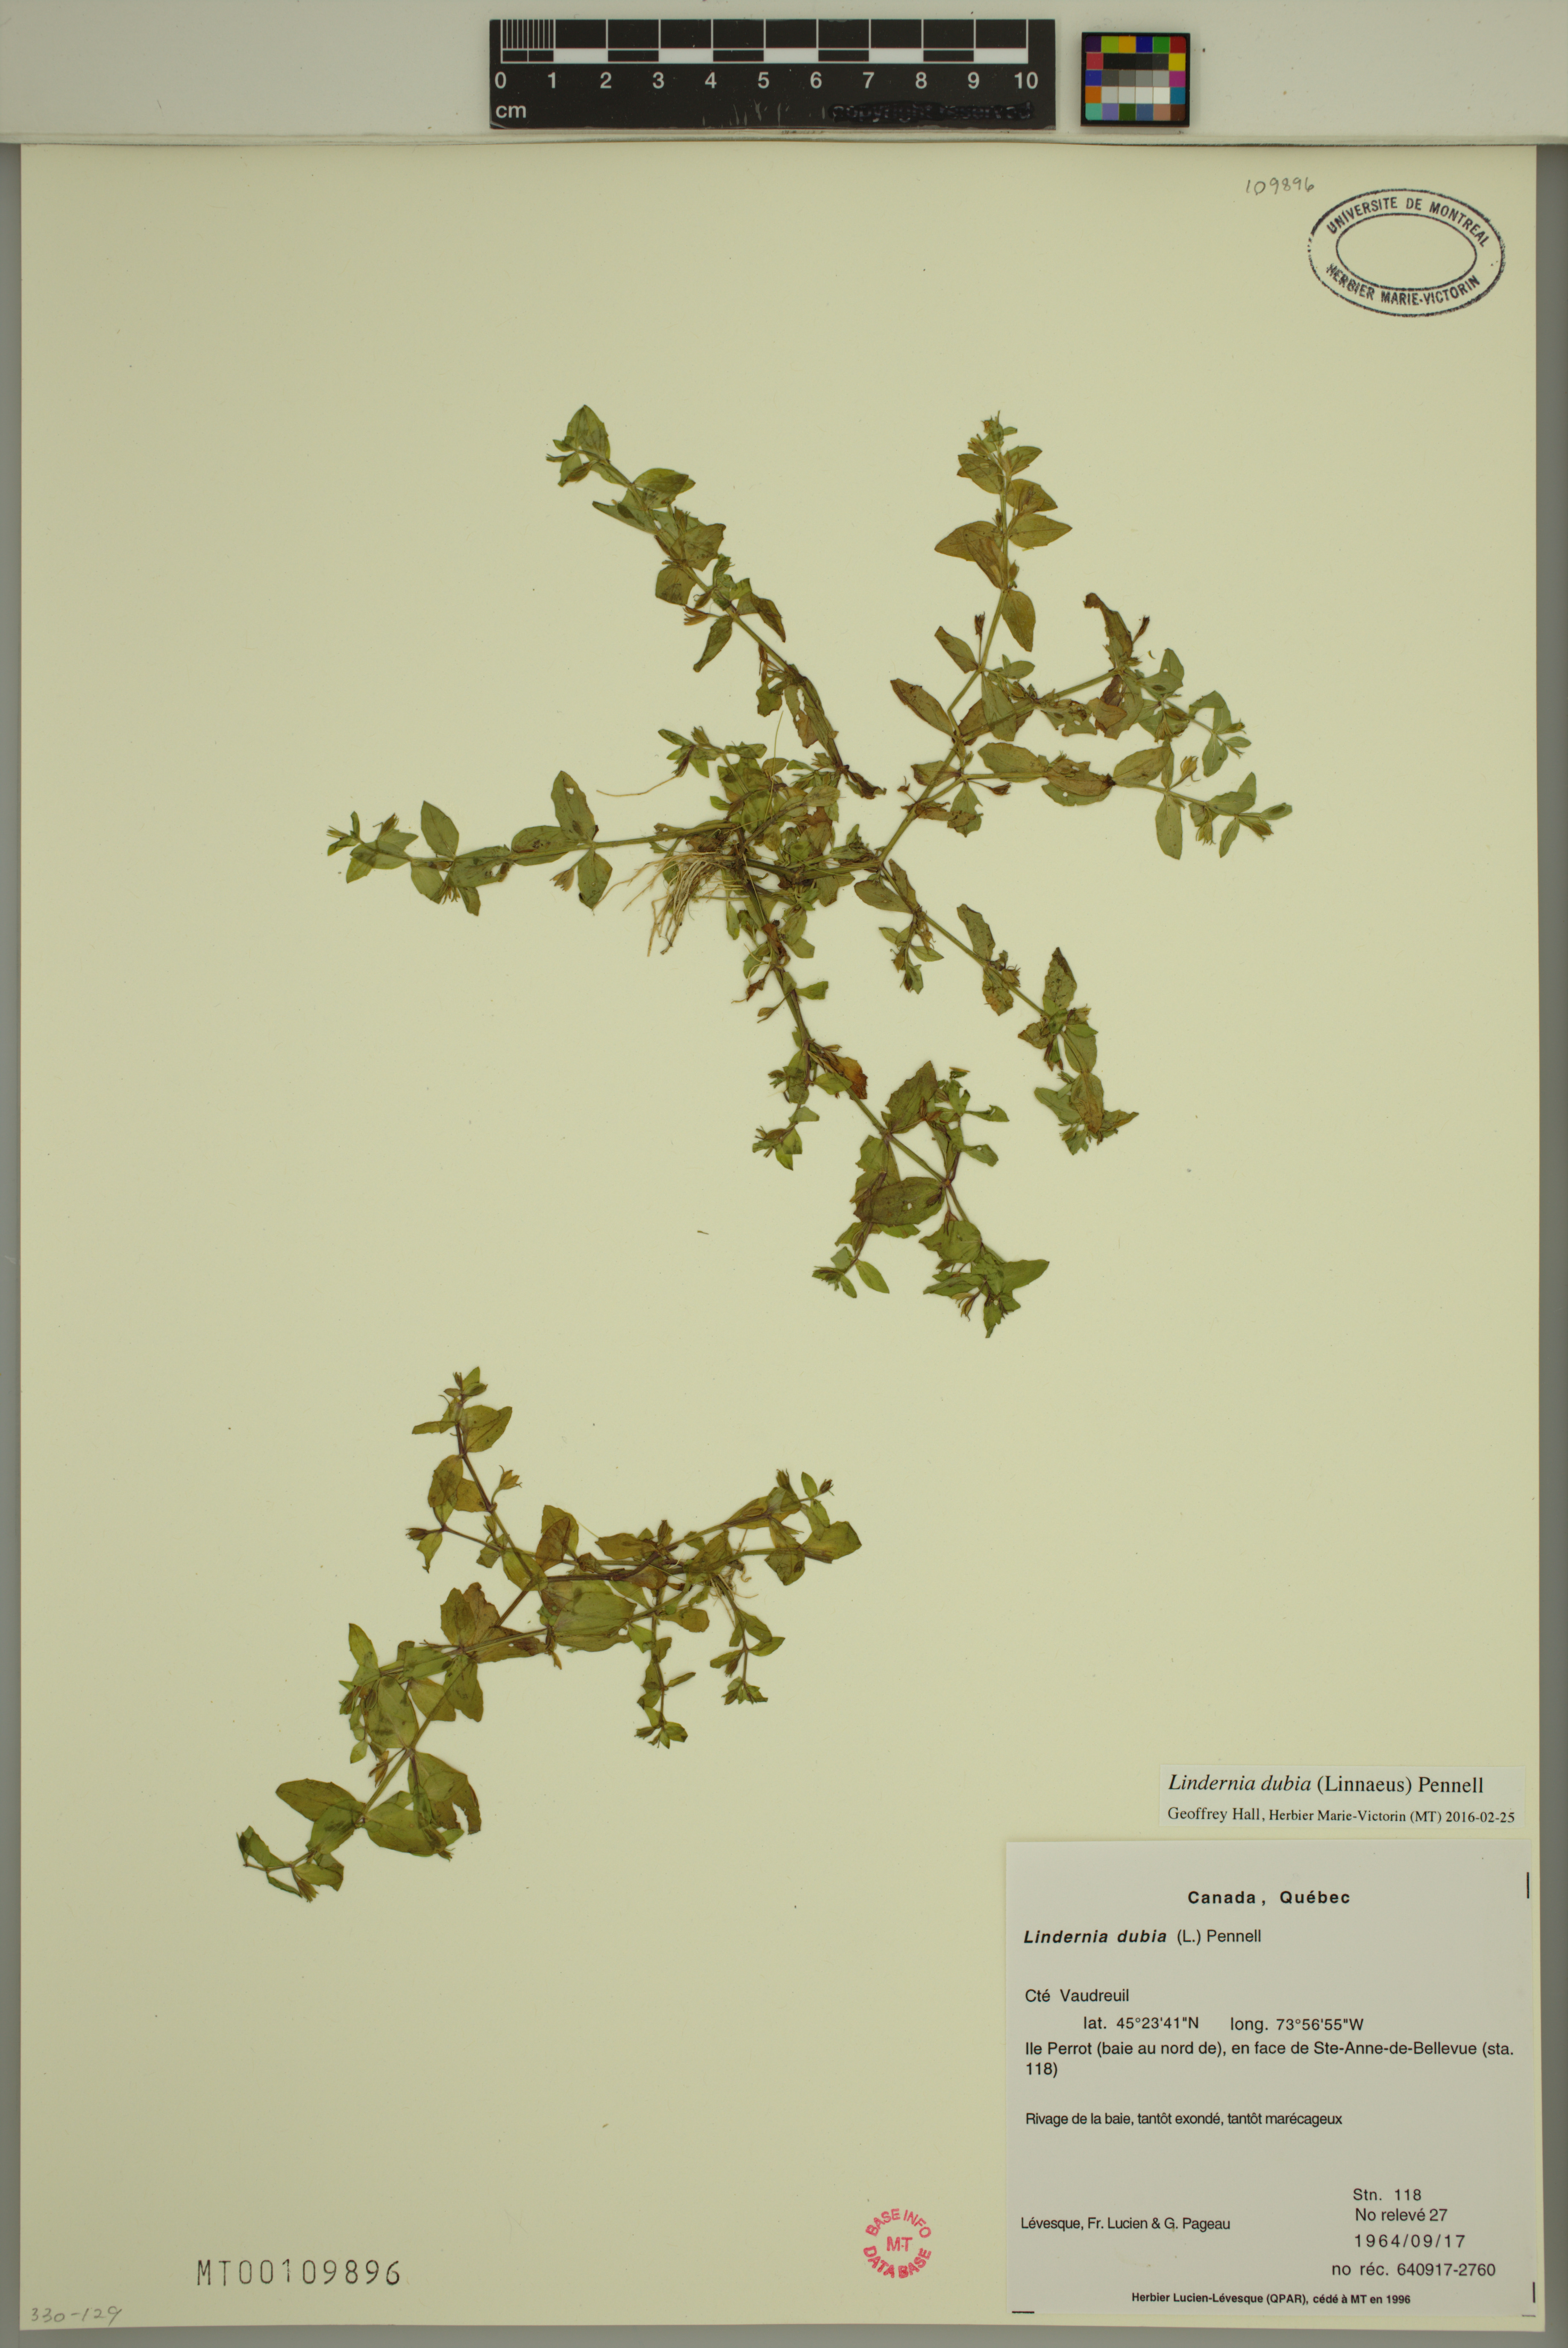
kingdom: Plantae
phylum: Tracheophyta
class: Magnoliopsida
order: Lamiales
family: Linderniaceae
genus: Lindernia
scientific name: Lindernia dubia
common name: Annual false pimpernel
